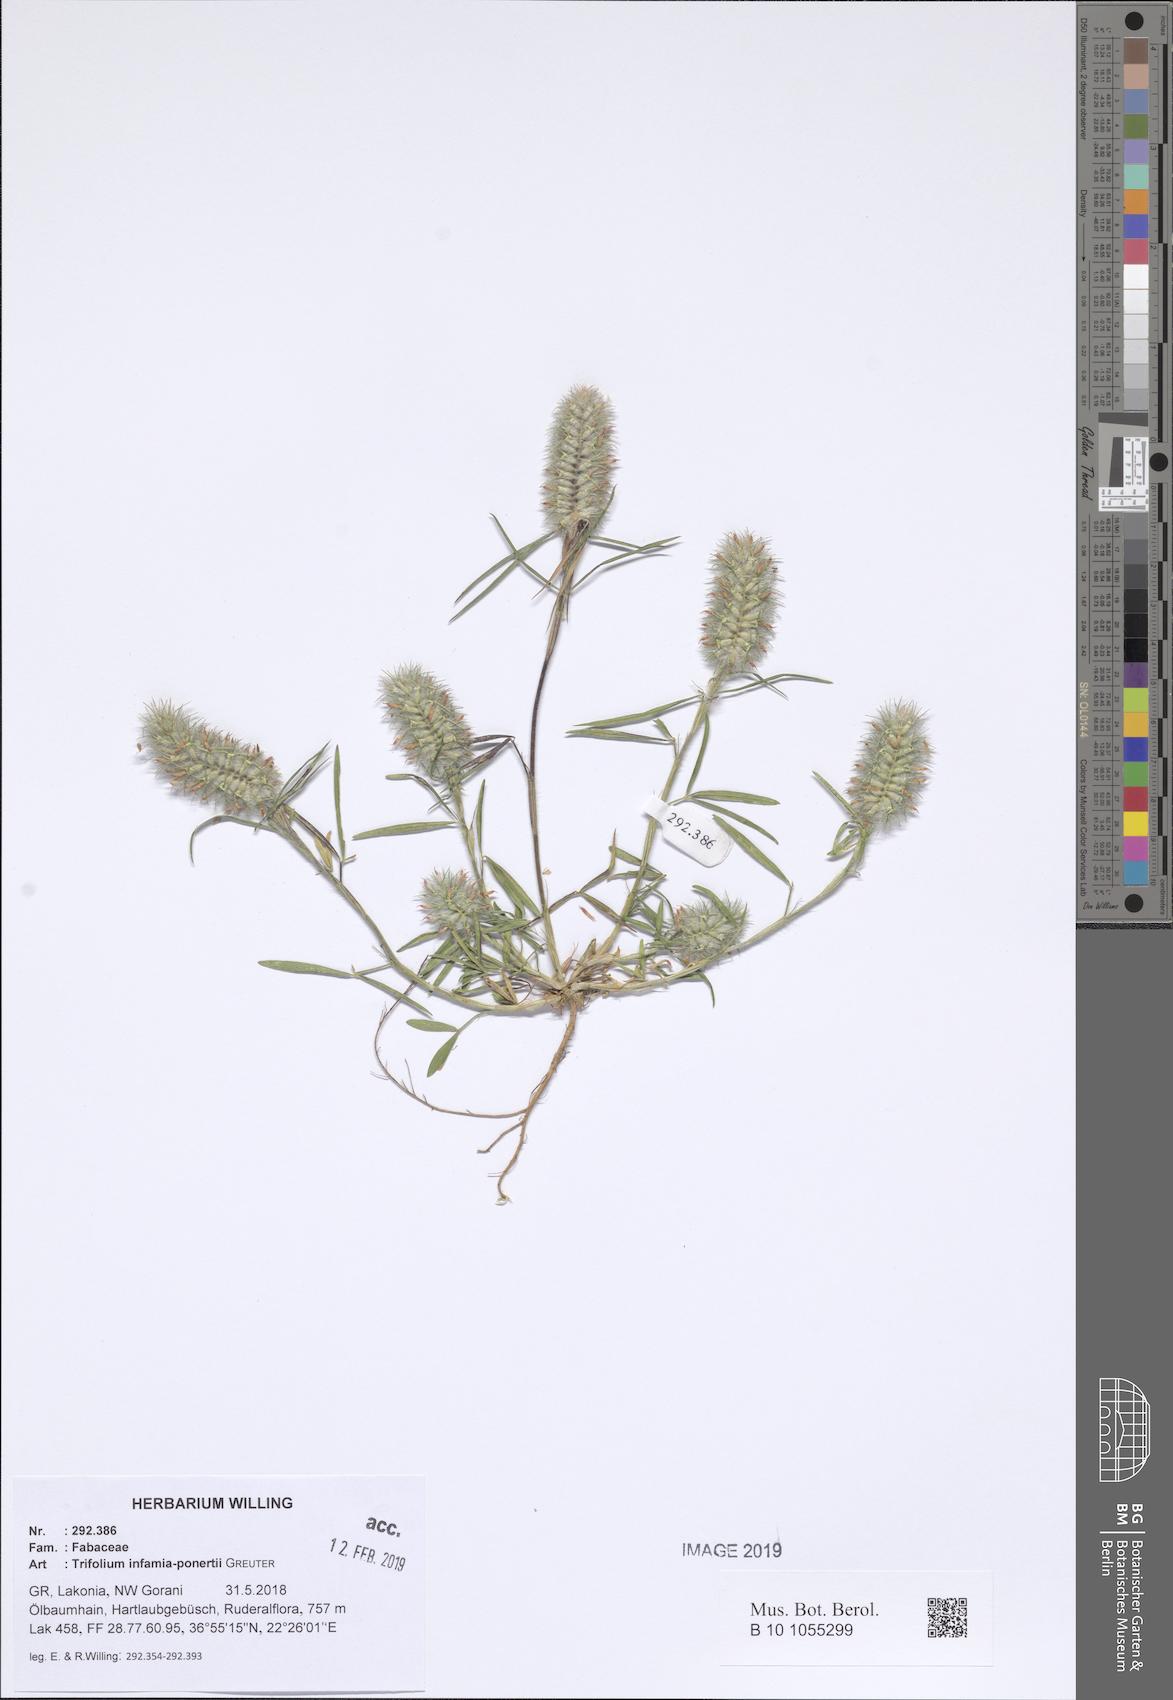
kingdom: Plantae
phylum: Tracheophyta
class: Magnoliopsida
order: Fabales
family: Fabaceae
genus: Trifolium
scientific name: Trifolium infamia-ponertii
